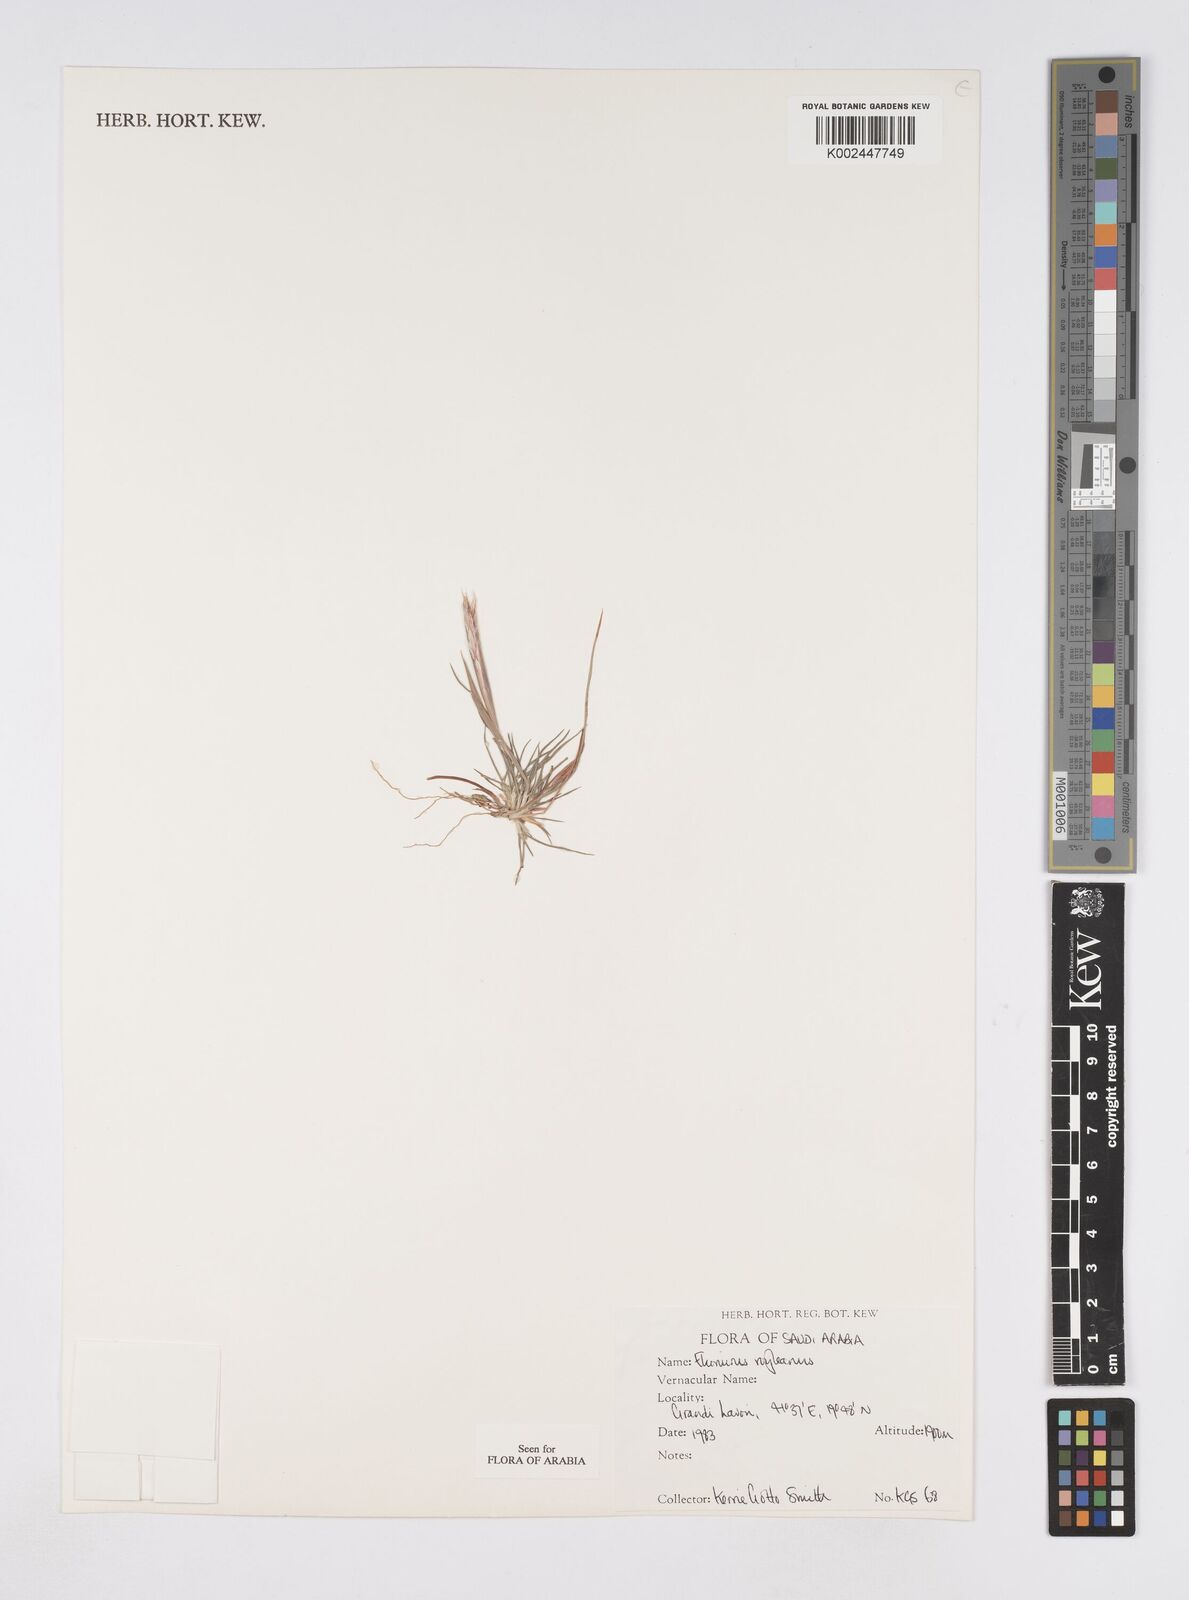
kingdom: Plantae
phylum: Tracheophyta
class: Liliopsida
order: Poales
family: Poaceae
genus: Elionurus
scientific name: Elionurus royleanus
